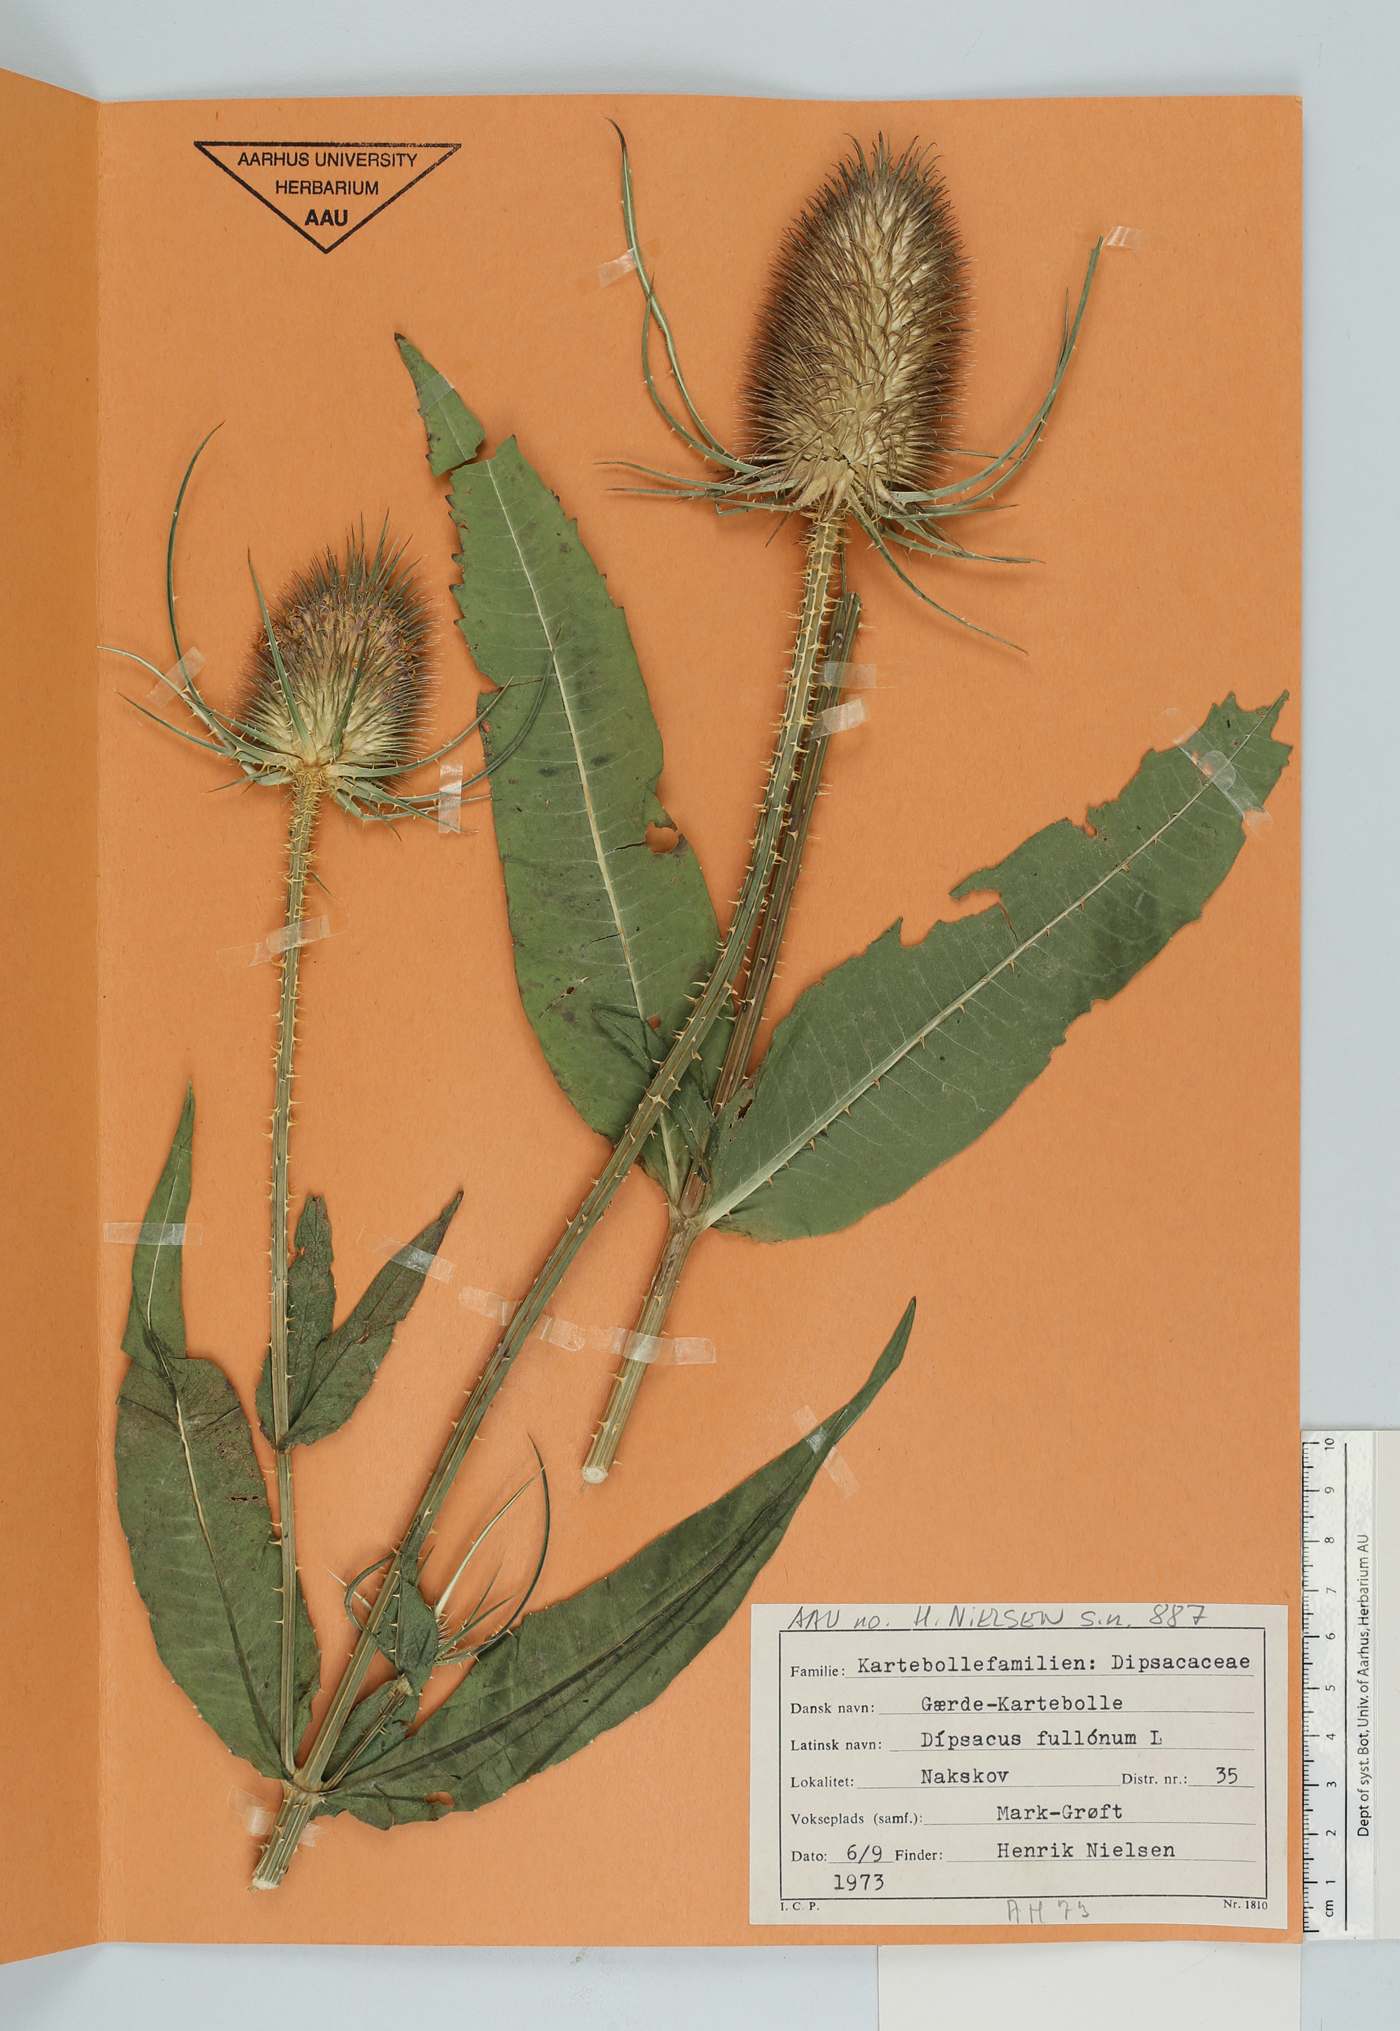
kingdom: Plantae
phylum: Tracheophyta
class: Magnoliopsida
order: Dipsacales
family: Caprifoliaceae
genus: Dipsacus
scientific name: Dipsacus fullonum
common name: Teasel
